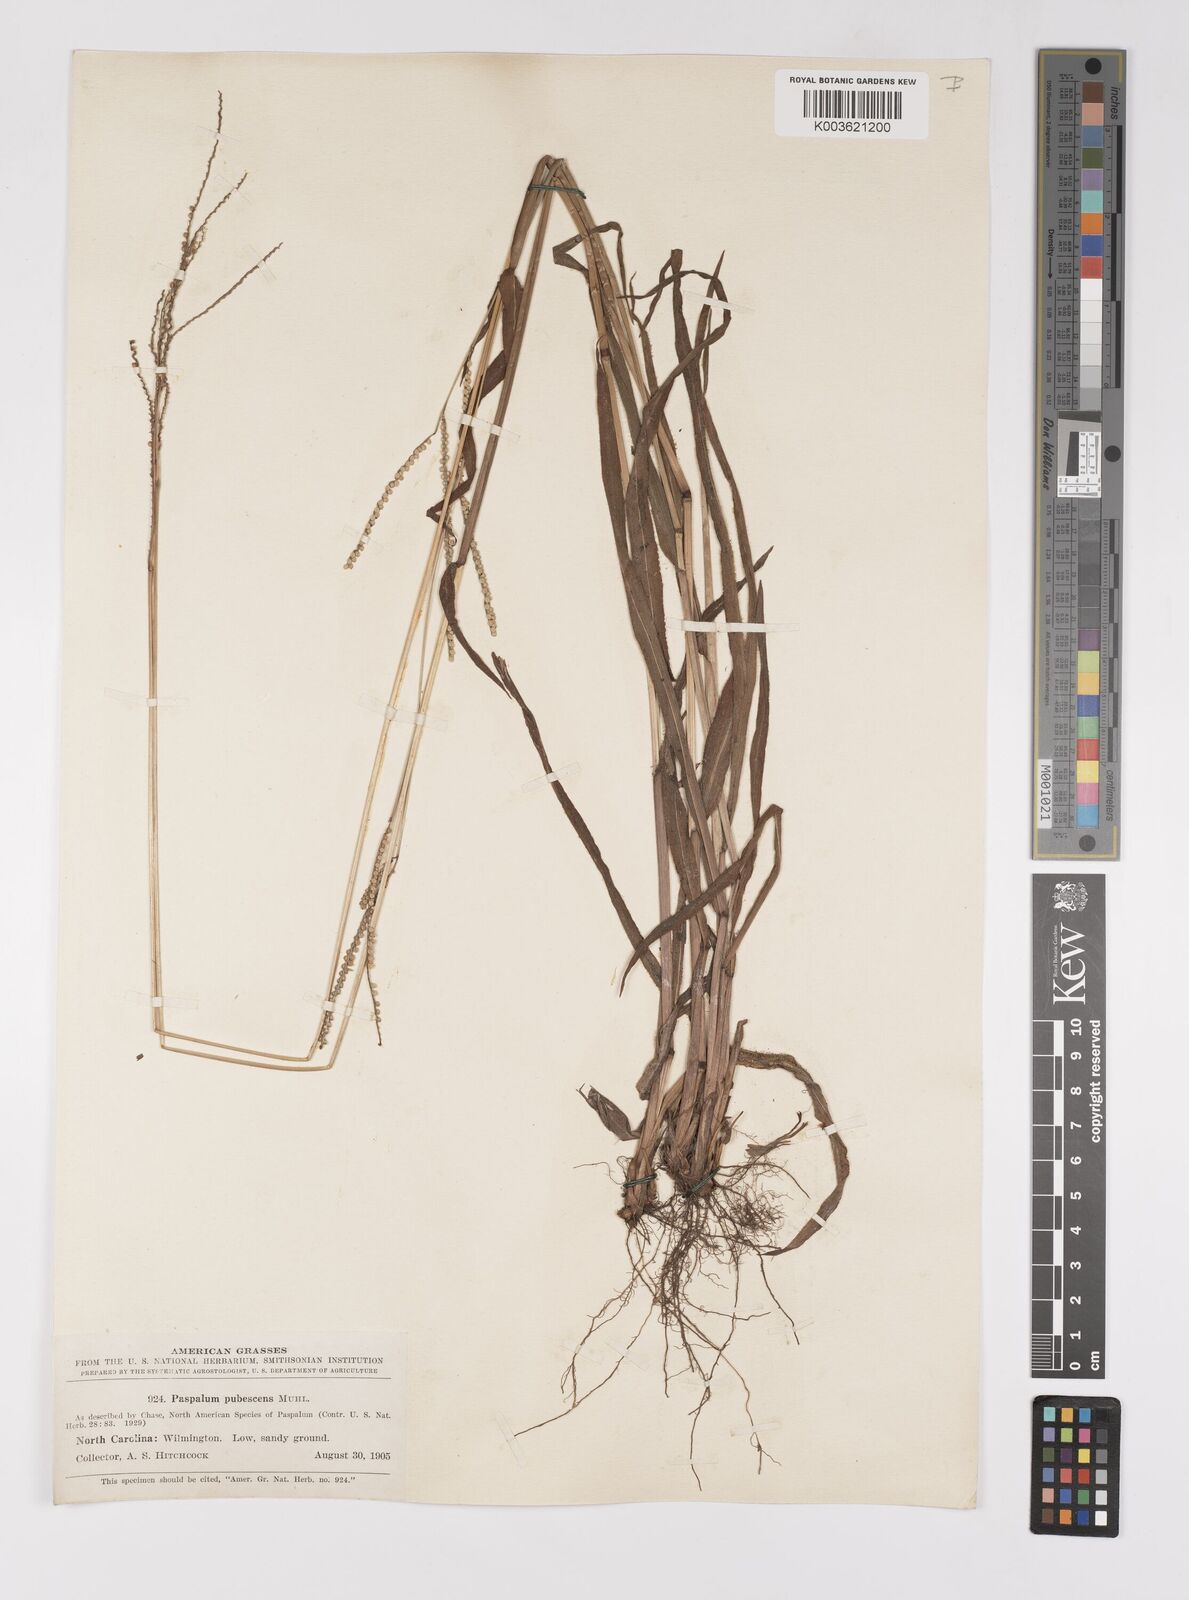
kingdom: Plantae
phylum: Tracheophyta
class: Liliopsida
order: Poales
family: Poaceae
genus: Paspalum
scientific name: Paspalum setaceum
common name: Slender paspalum
